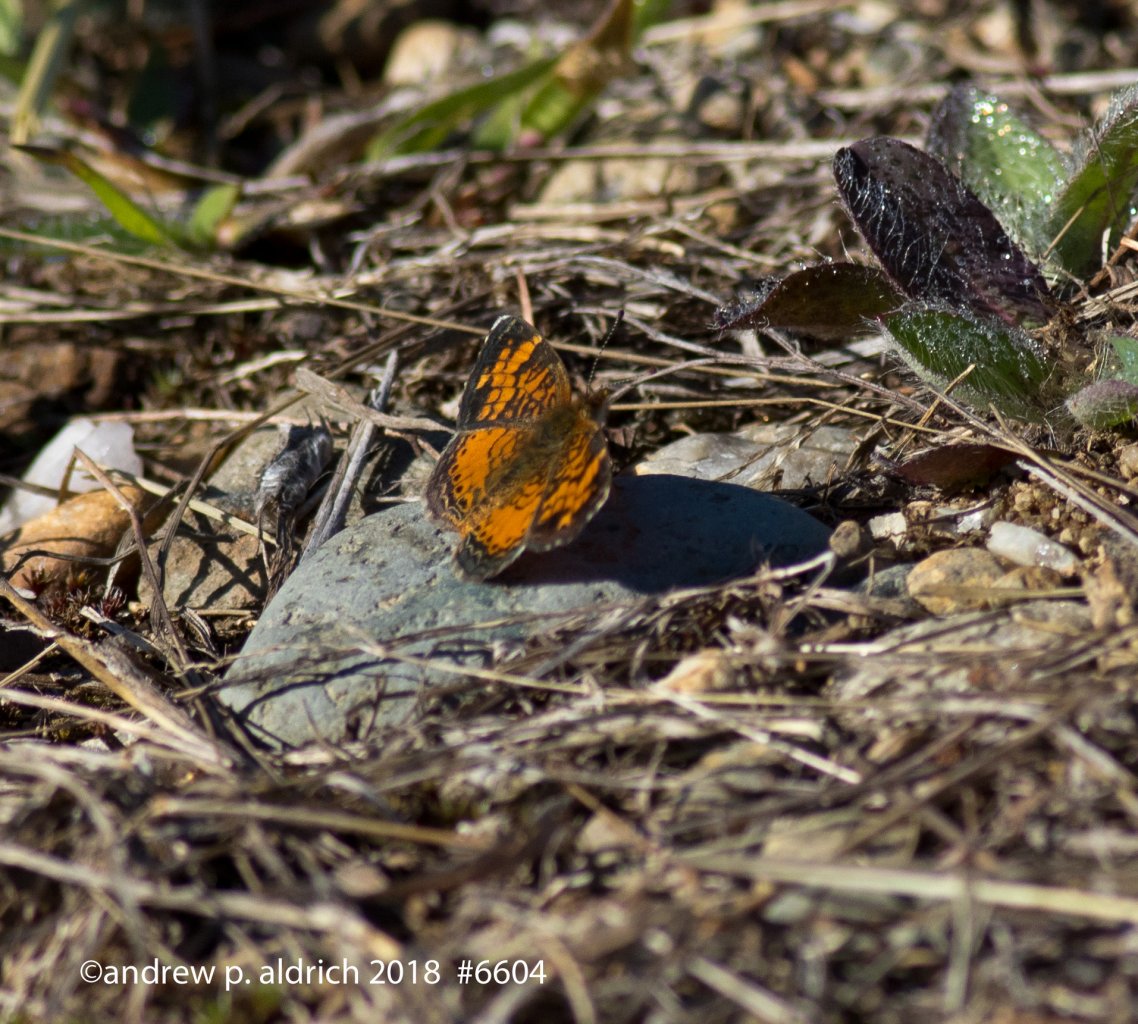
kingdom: Animalia
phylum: Arthropoda
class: Insecta
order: Lepidoptera
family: Nymphalidae
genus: Phyciodes
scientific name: Phyciodes
